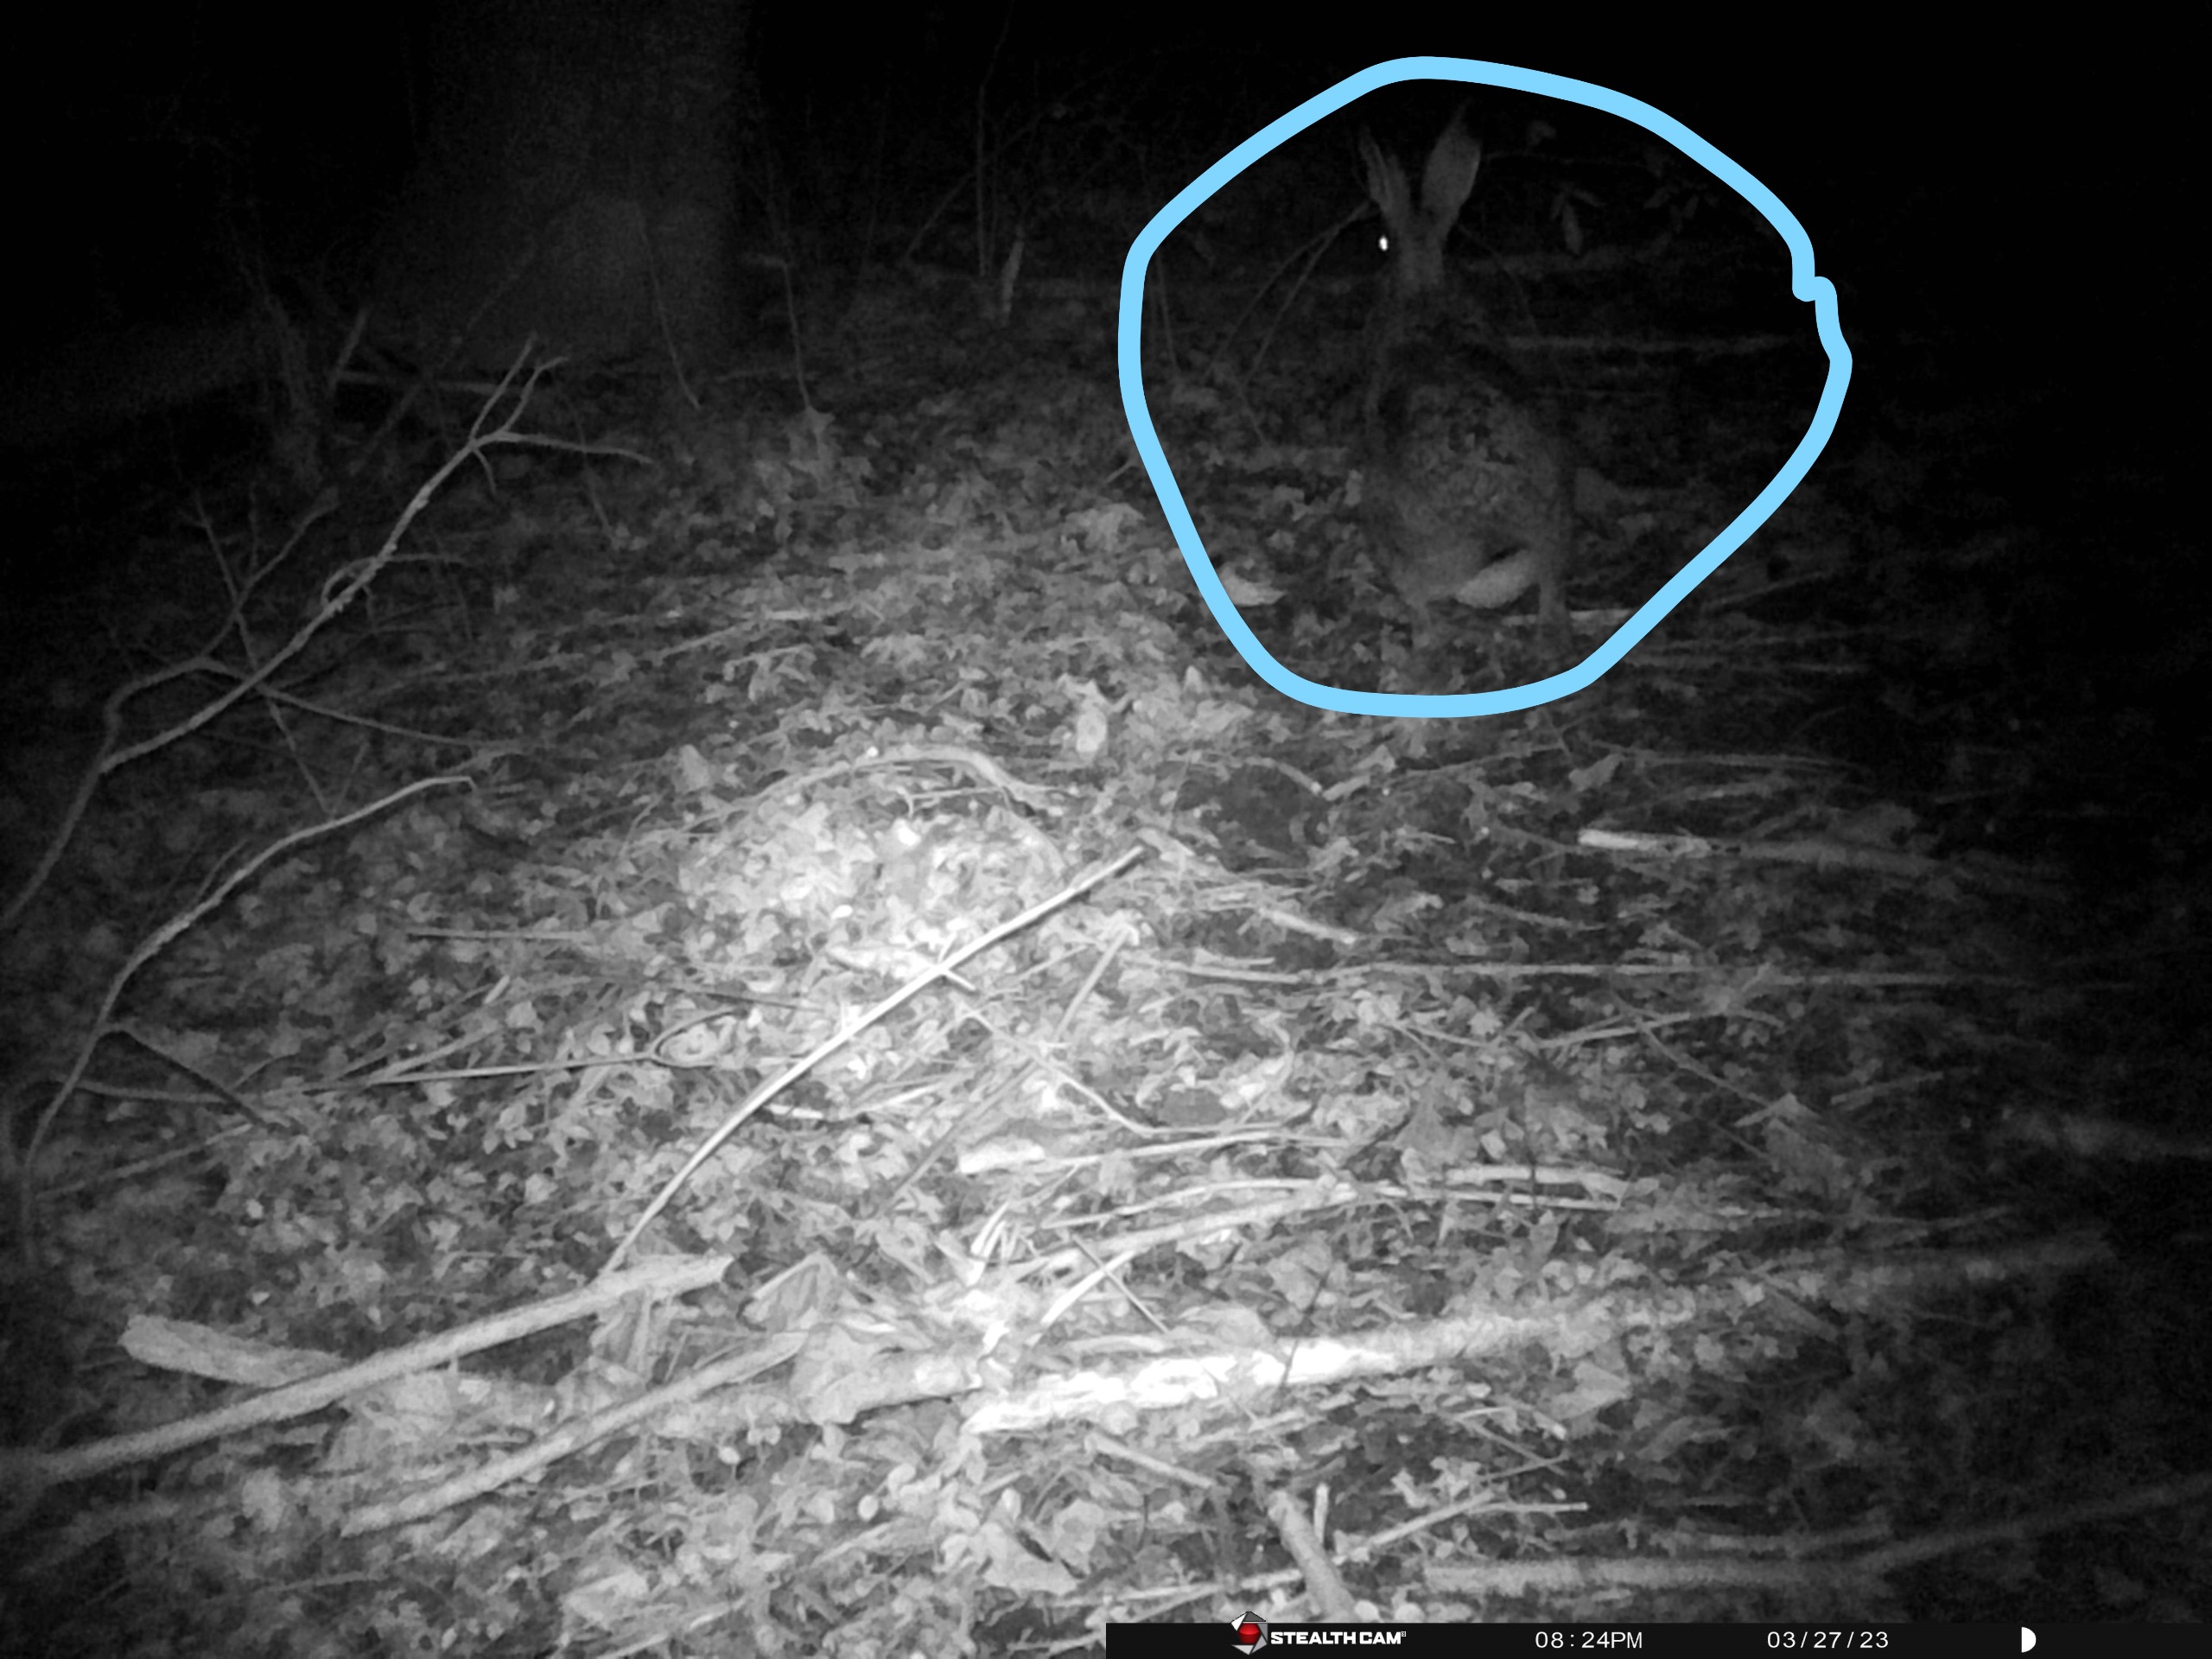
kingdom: Animalia
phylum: Chordata
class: Mammalia
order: Lagomorpha
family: Leporidae
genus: Lepus
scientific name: Lepus europaeus
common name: Hare
